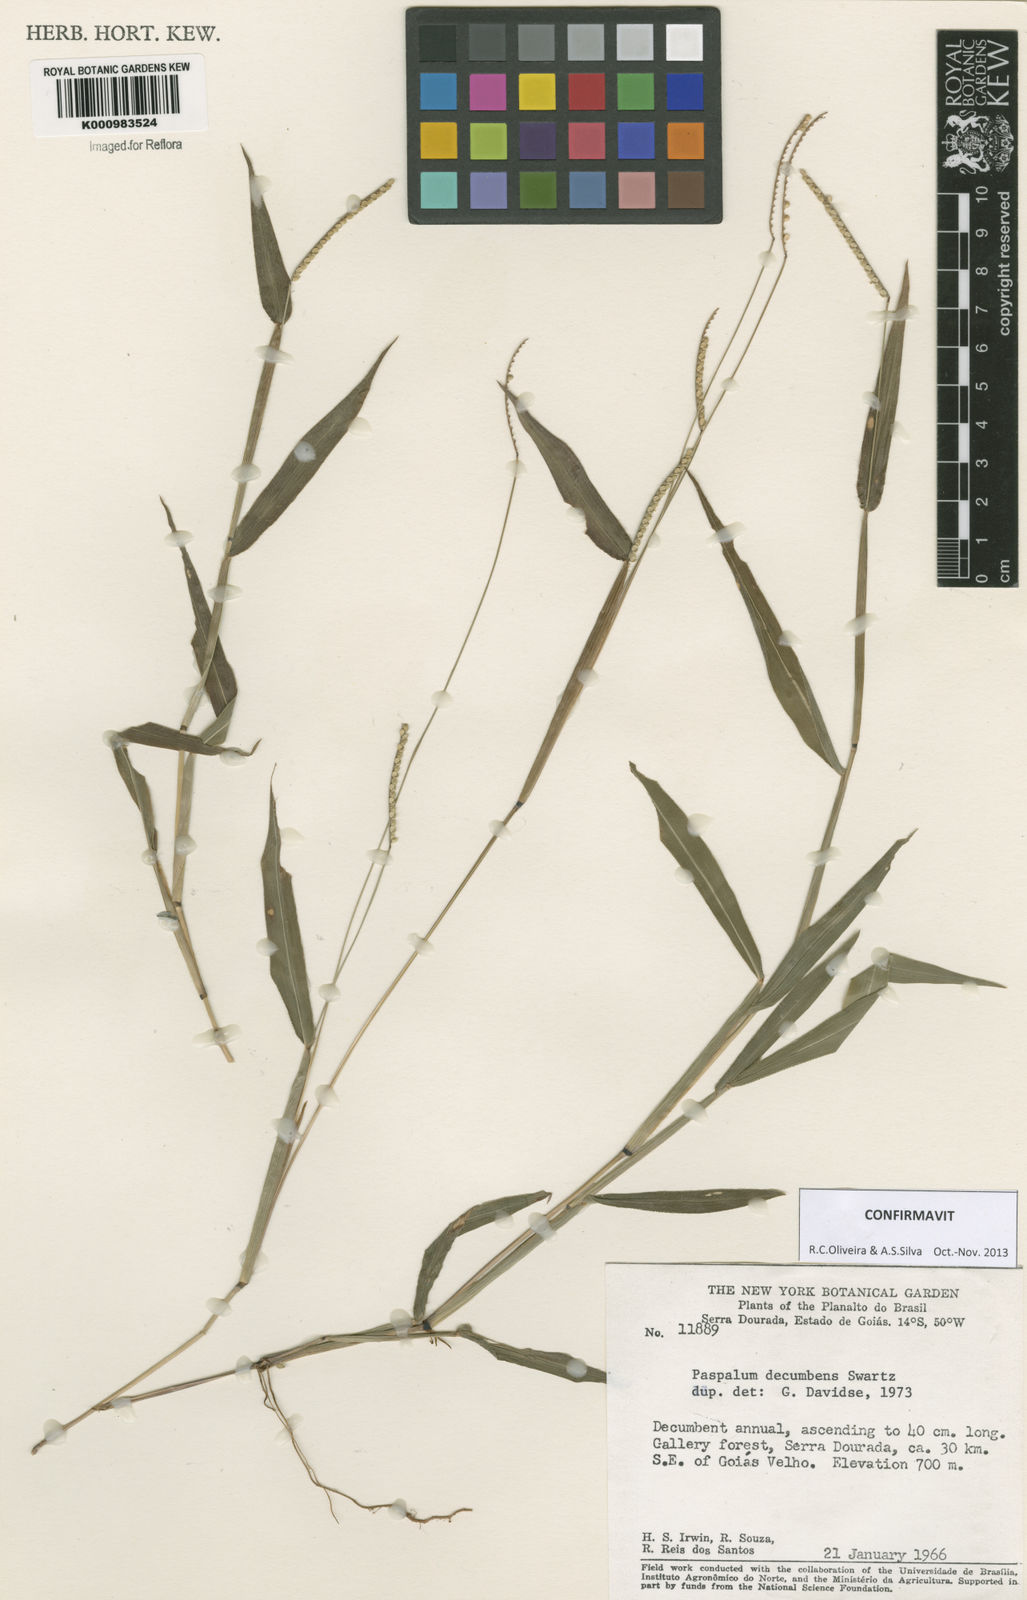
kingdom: Plantae
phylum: Tracheophyta
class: Liliopsida
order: Poales
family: Poaceae
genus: Paspalum
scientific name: Paspalum decumbens
